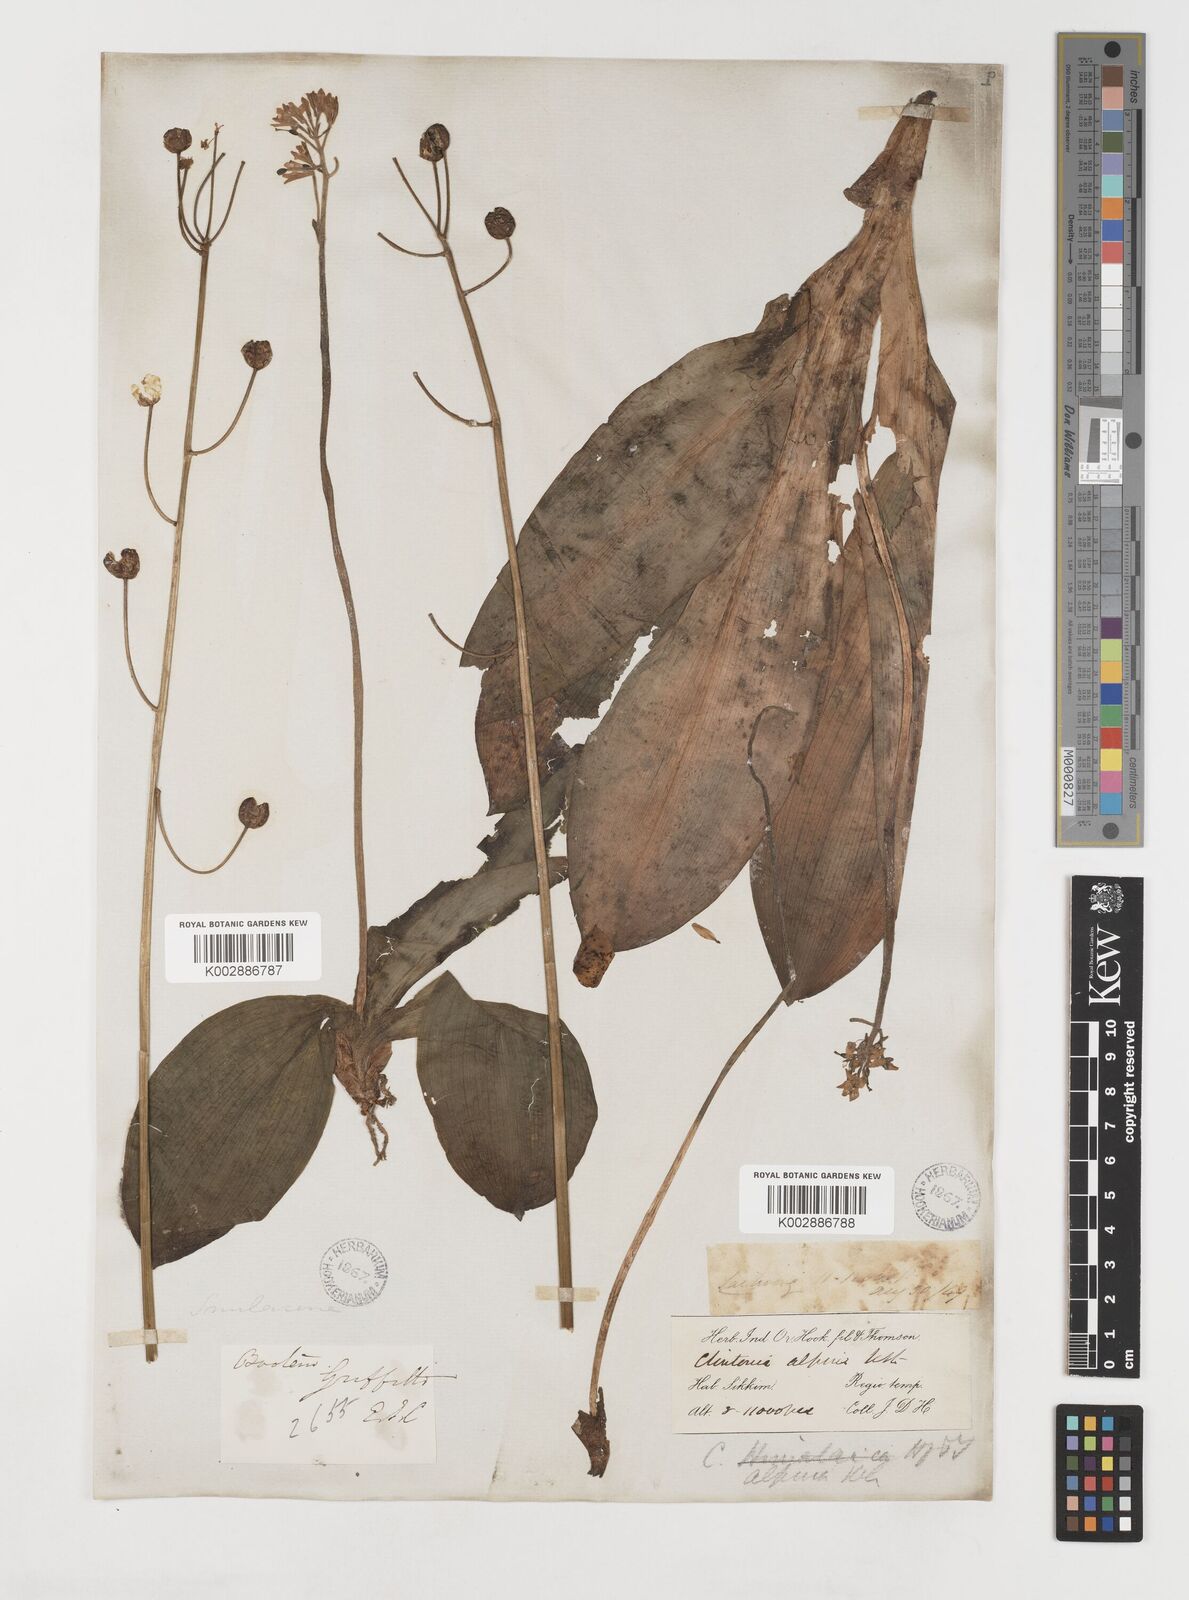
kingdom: Plantae
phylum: Tracheophyta
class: Liliopsida
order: Liliales
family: Liliaceae
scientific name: Liliaceae
